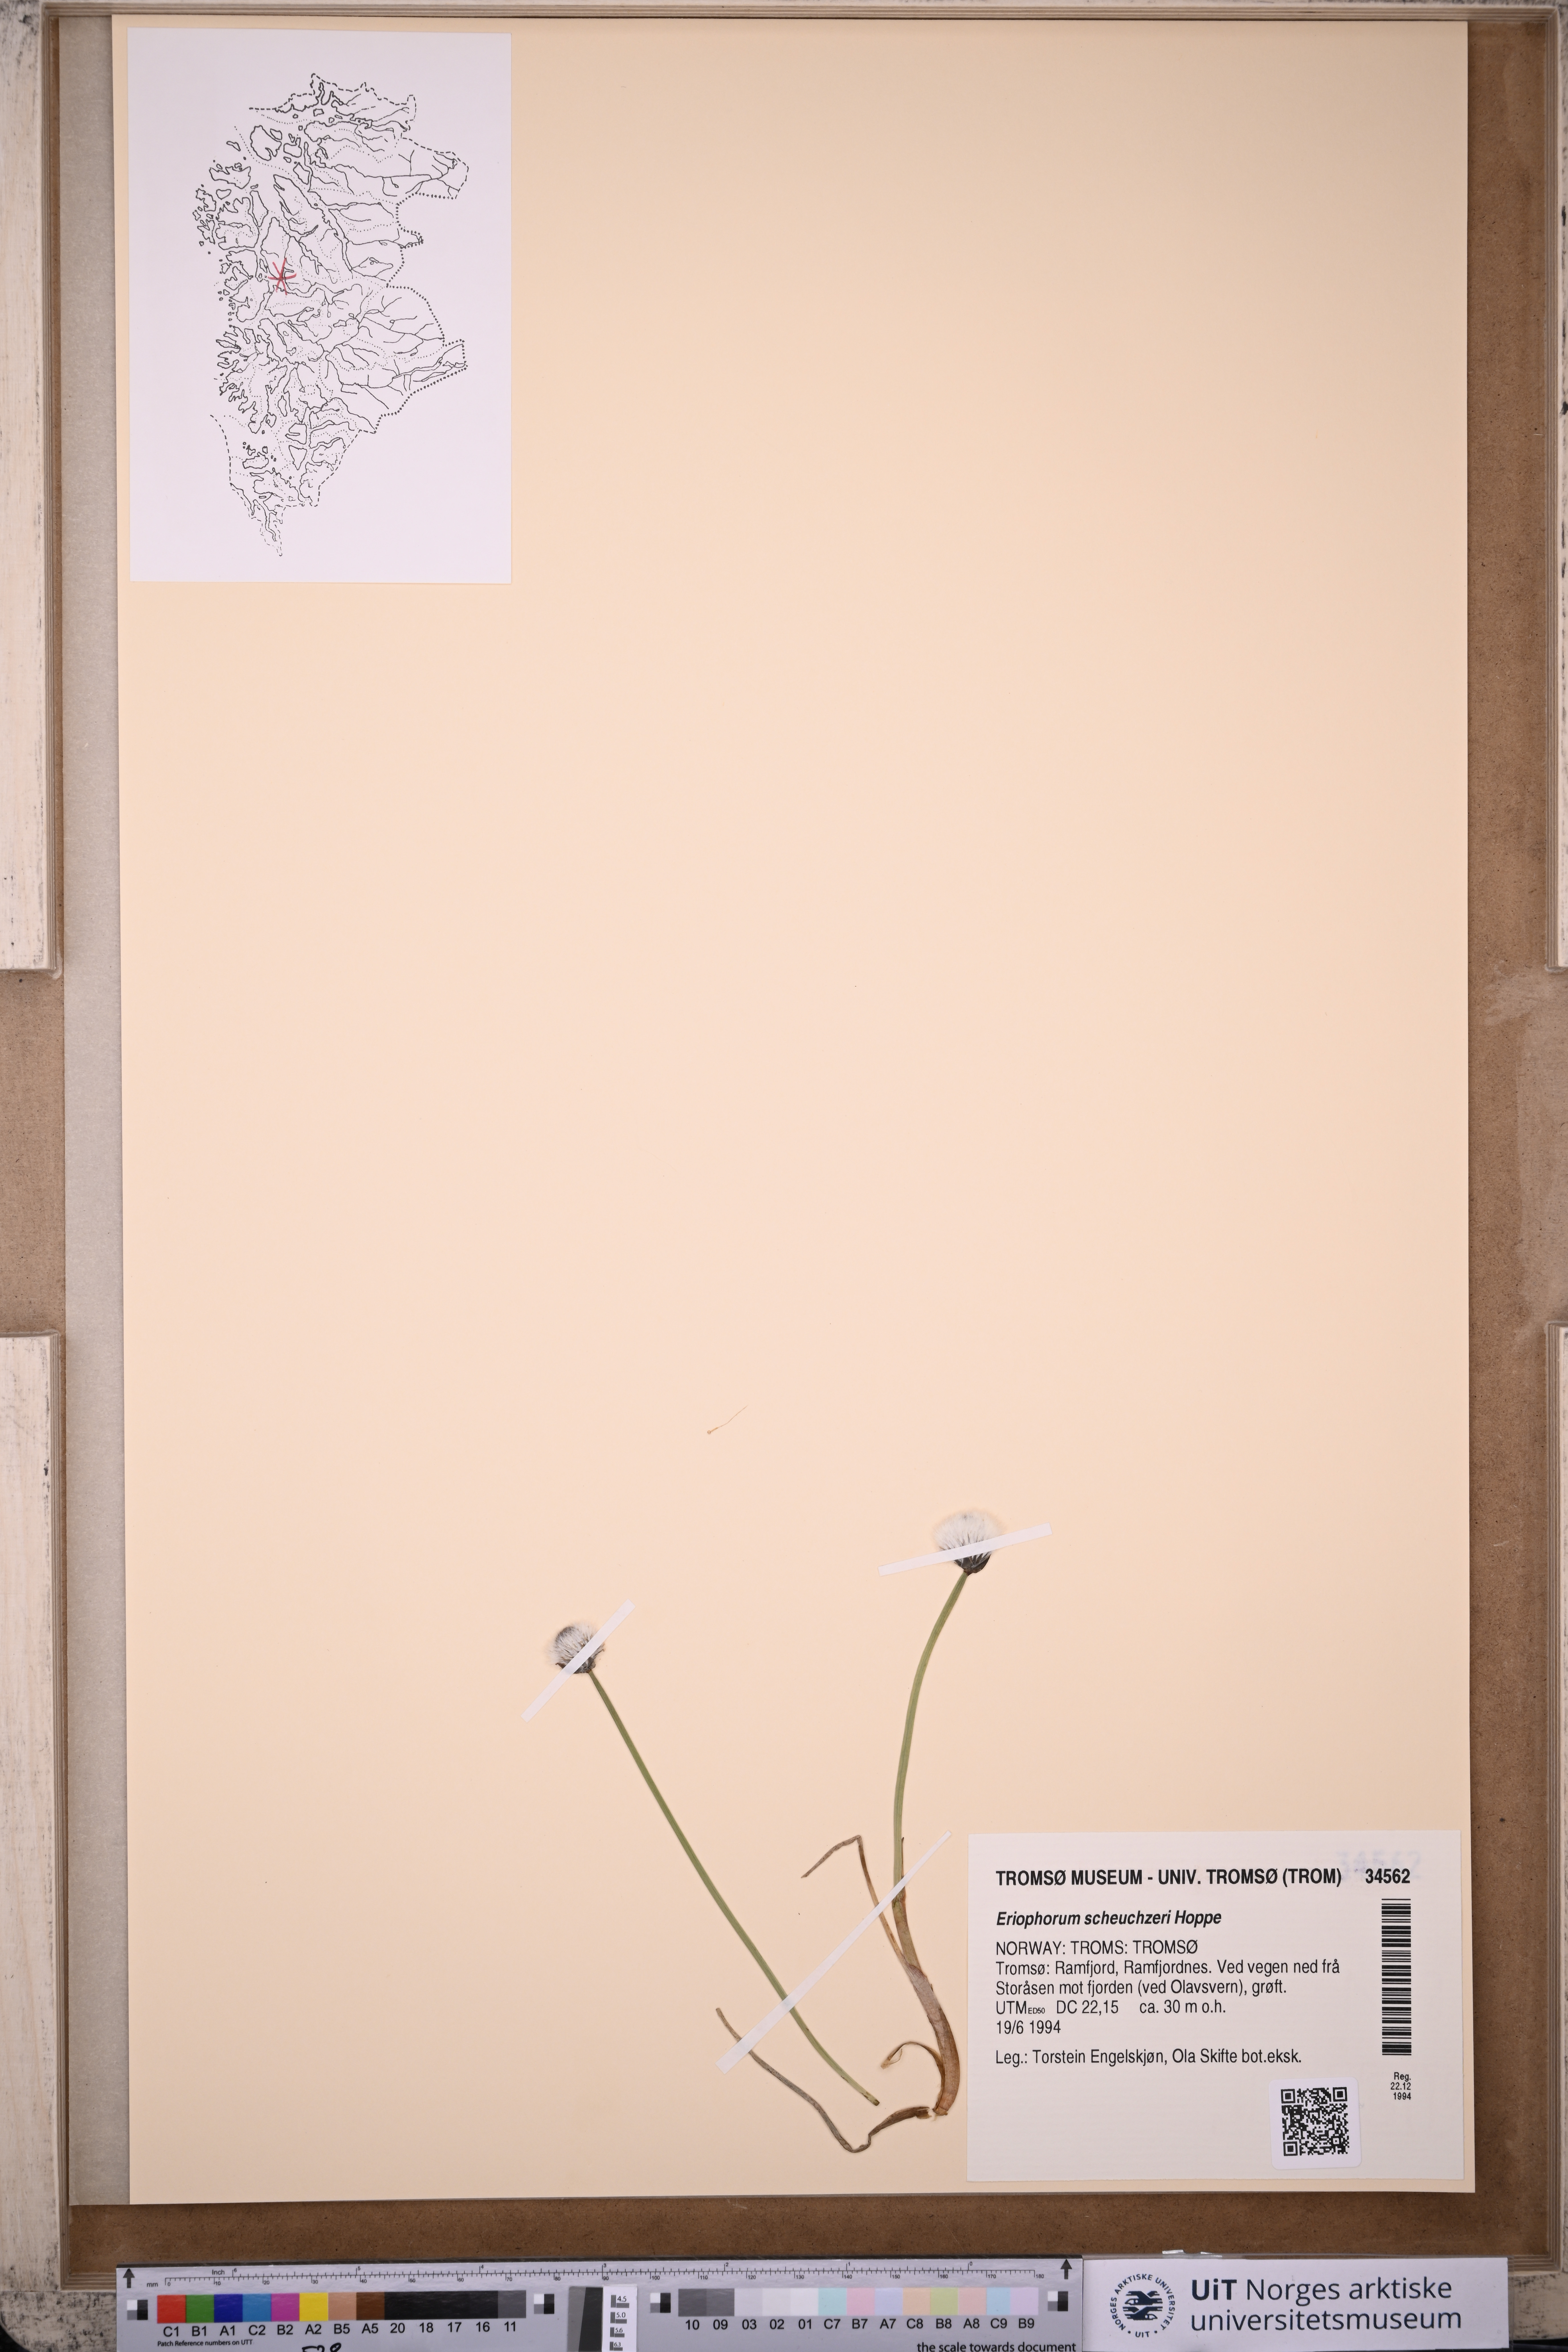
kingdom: Plantae
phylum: Tracheophyta
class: Liliopsida
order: Poales
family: Cyperaceae
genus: Eriophorum
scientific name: Eriophorum scheuchzeri
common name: Scheuchzer's cottongrass
